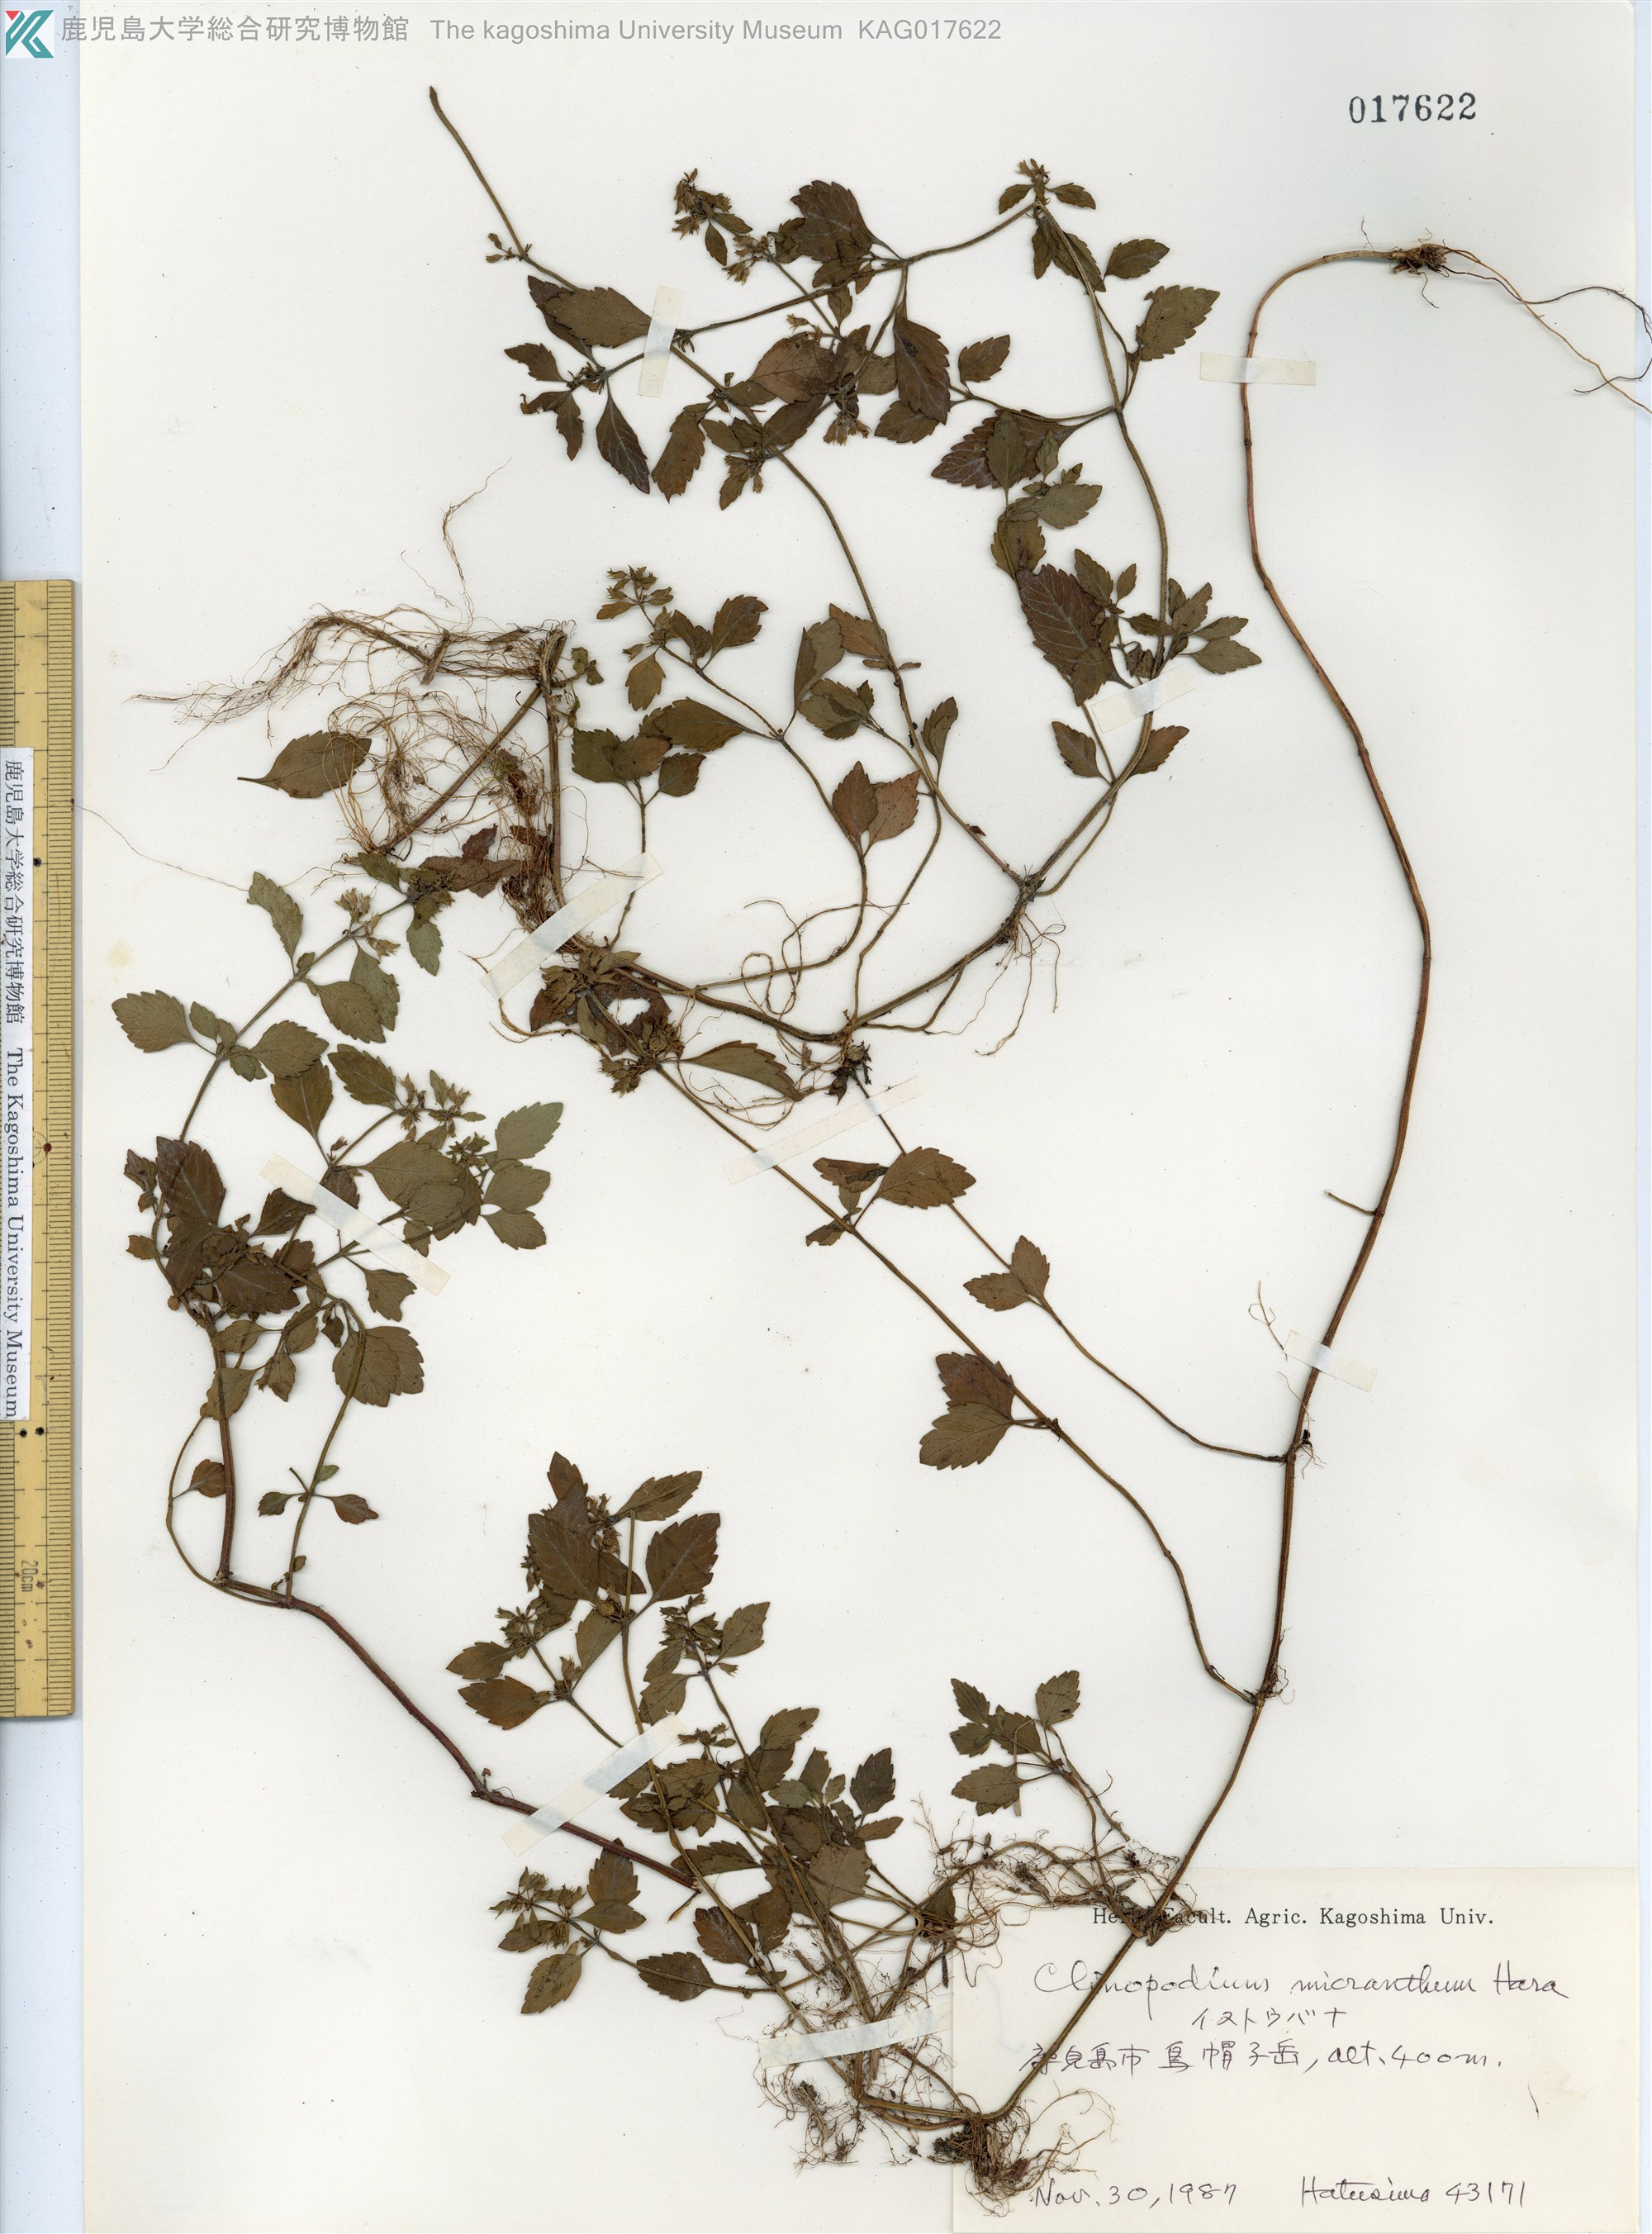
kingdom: Plantae
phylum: Tracheophyta
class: Magnoliopsida
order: Lamiales
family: Lamiaceae
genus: Clinopodium
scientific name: Clinopodium micranthum
